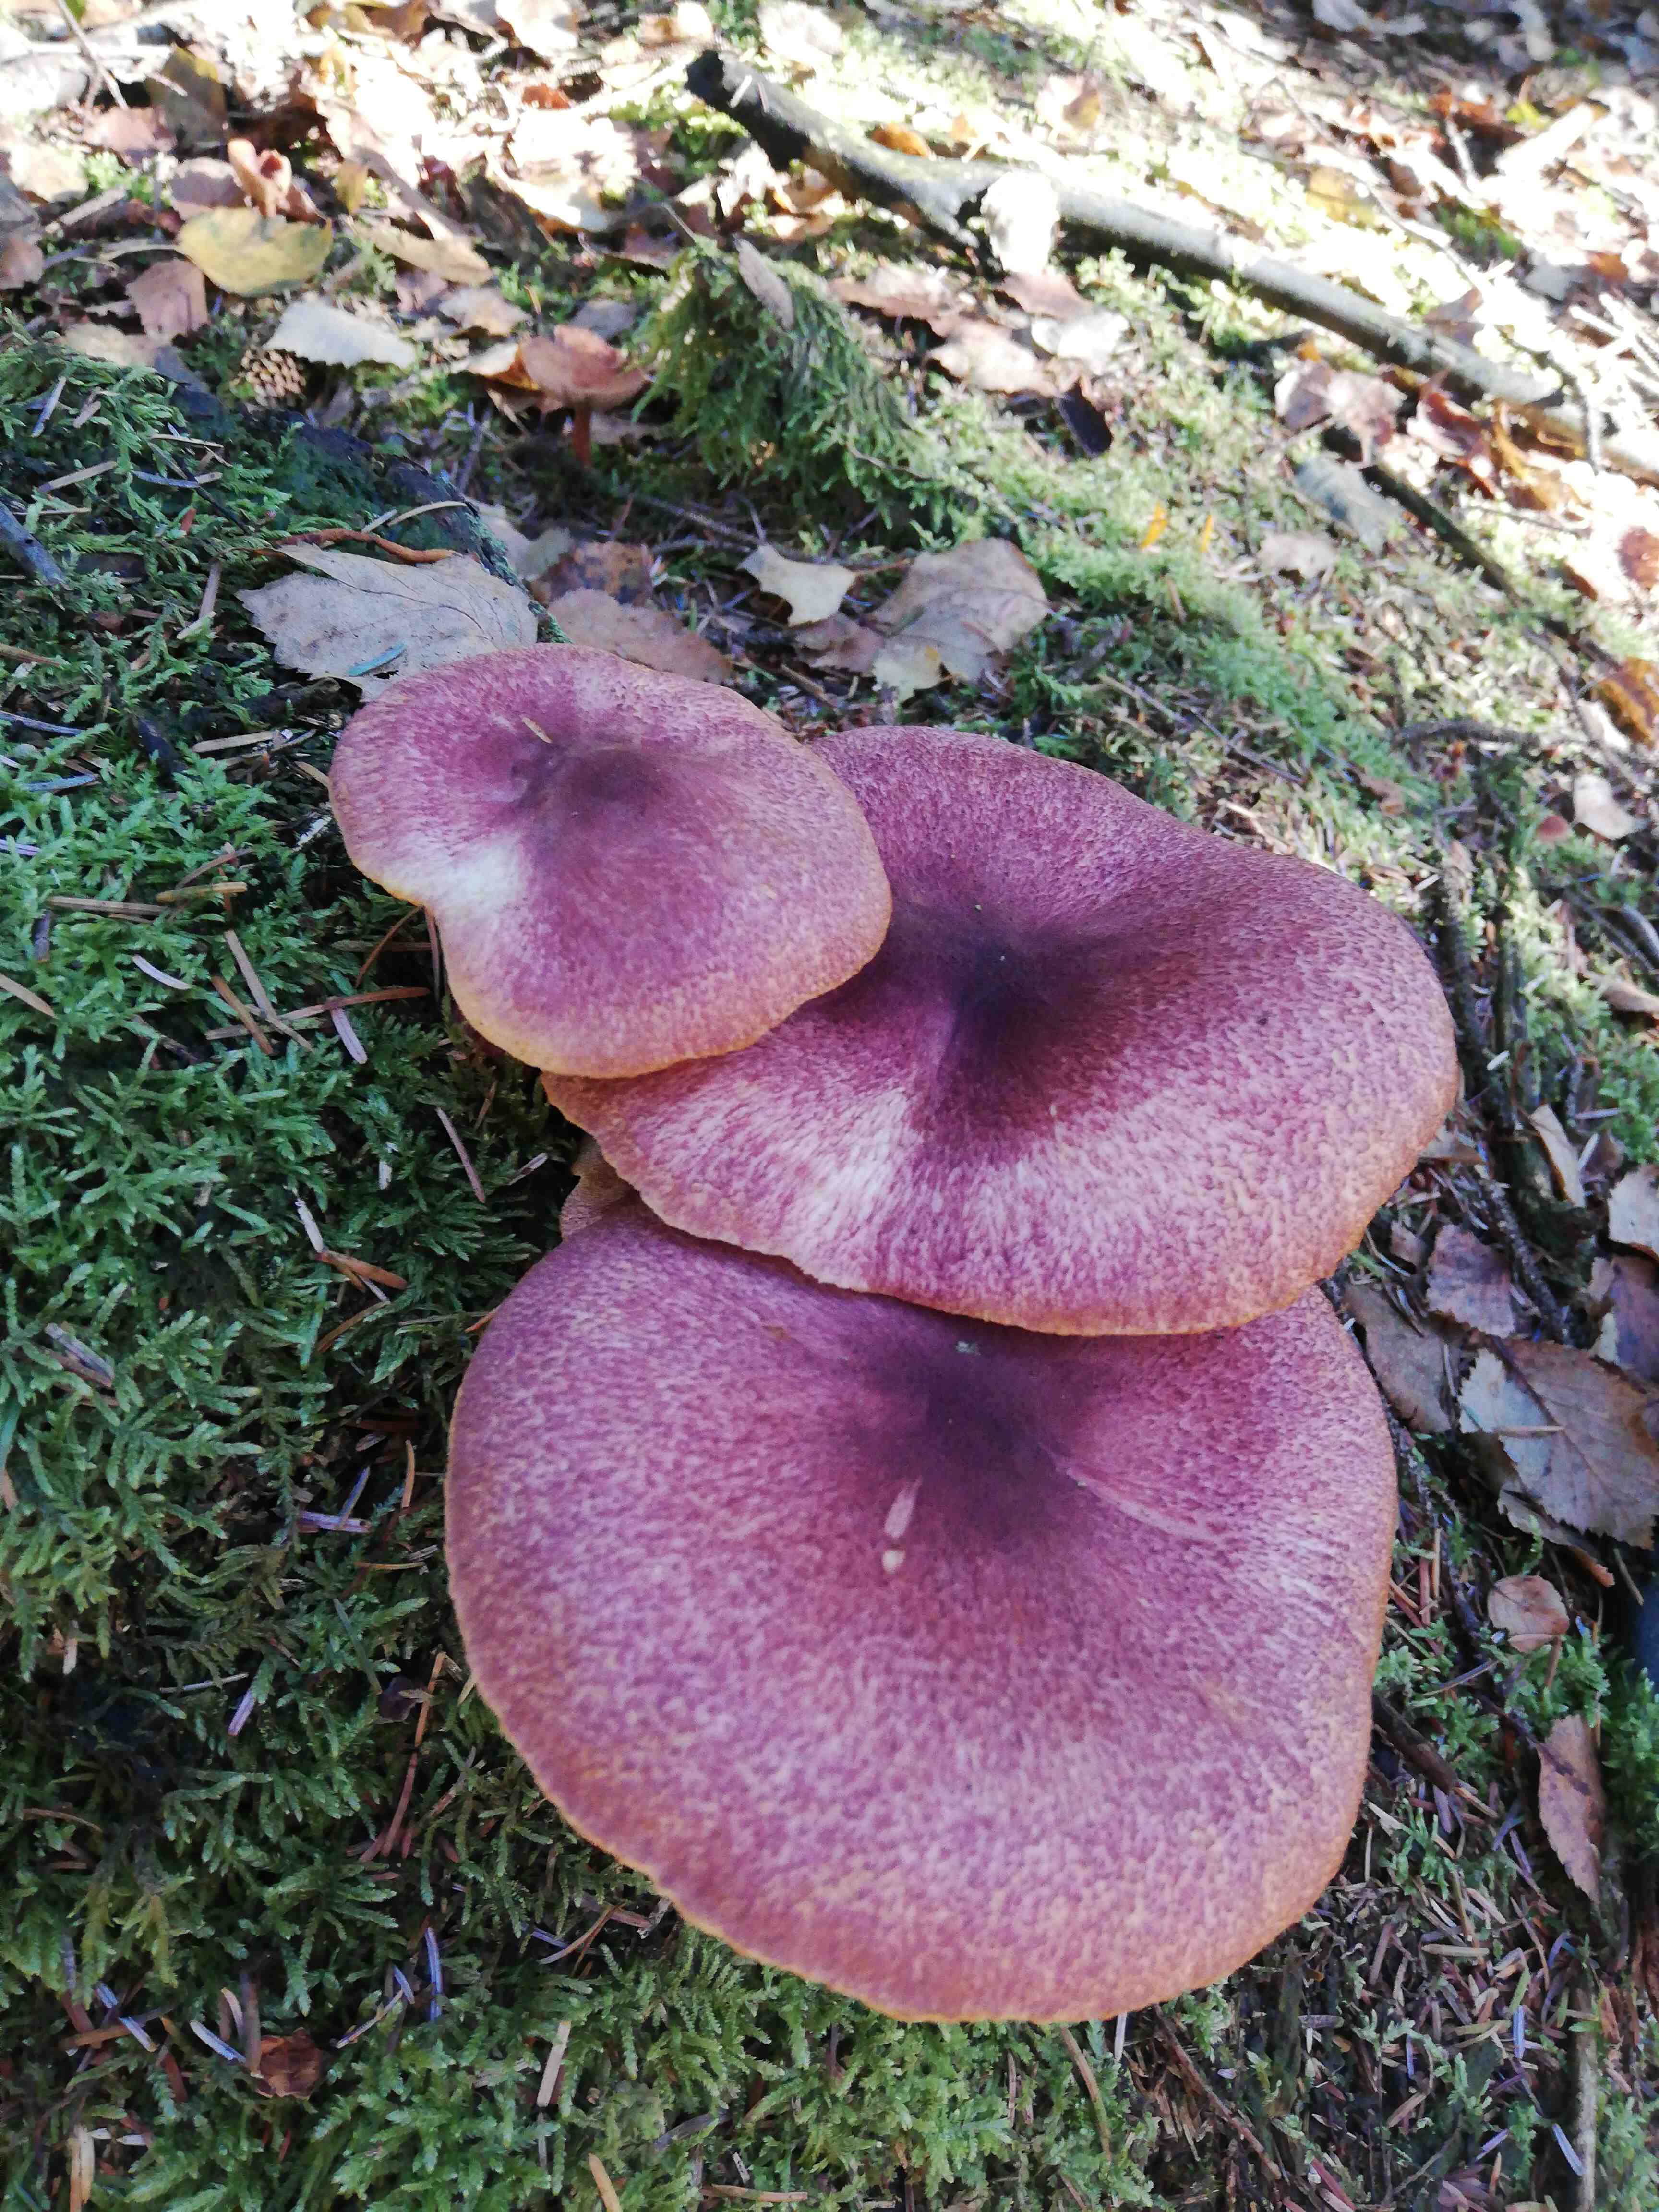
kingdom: Fungi
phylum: Basidiomycota
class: Agaricomycetes
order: Agaricales
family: Tricholomataceae
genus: Tricholomopsis
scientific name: Tricholomopsis rutilans
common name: purpur-væbnerhat
